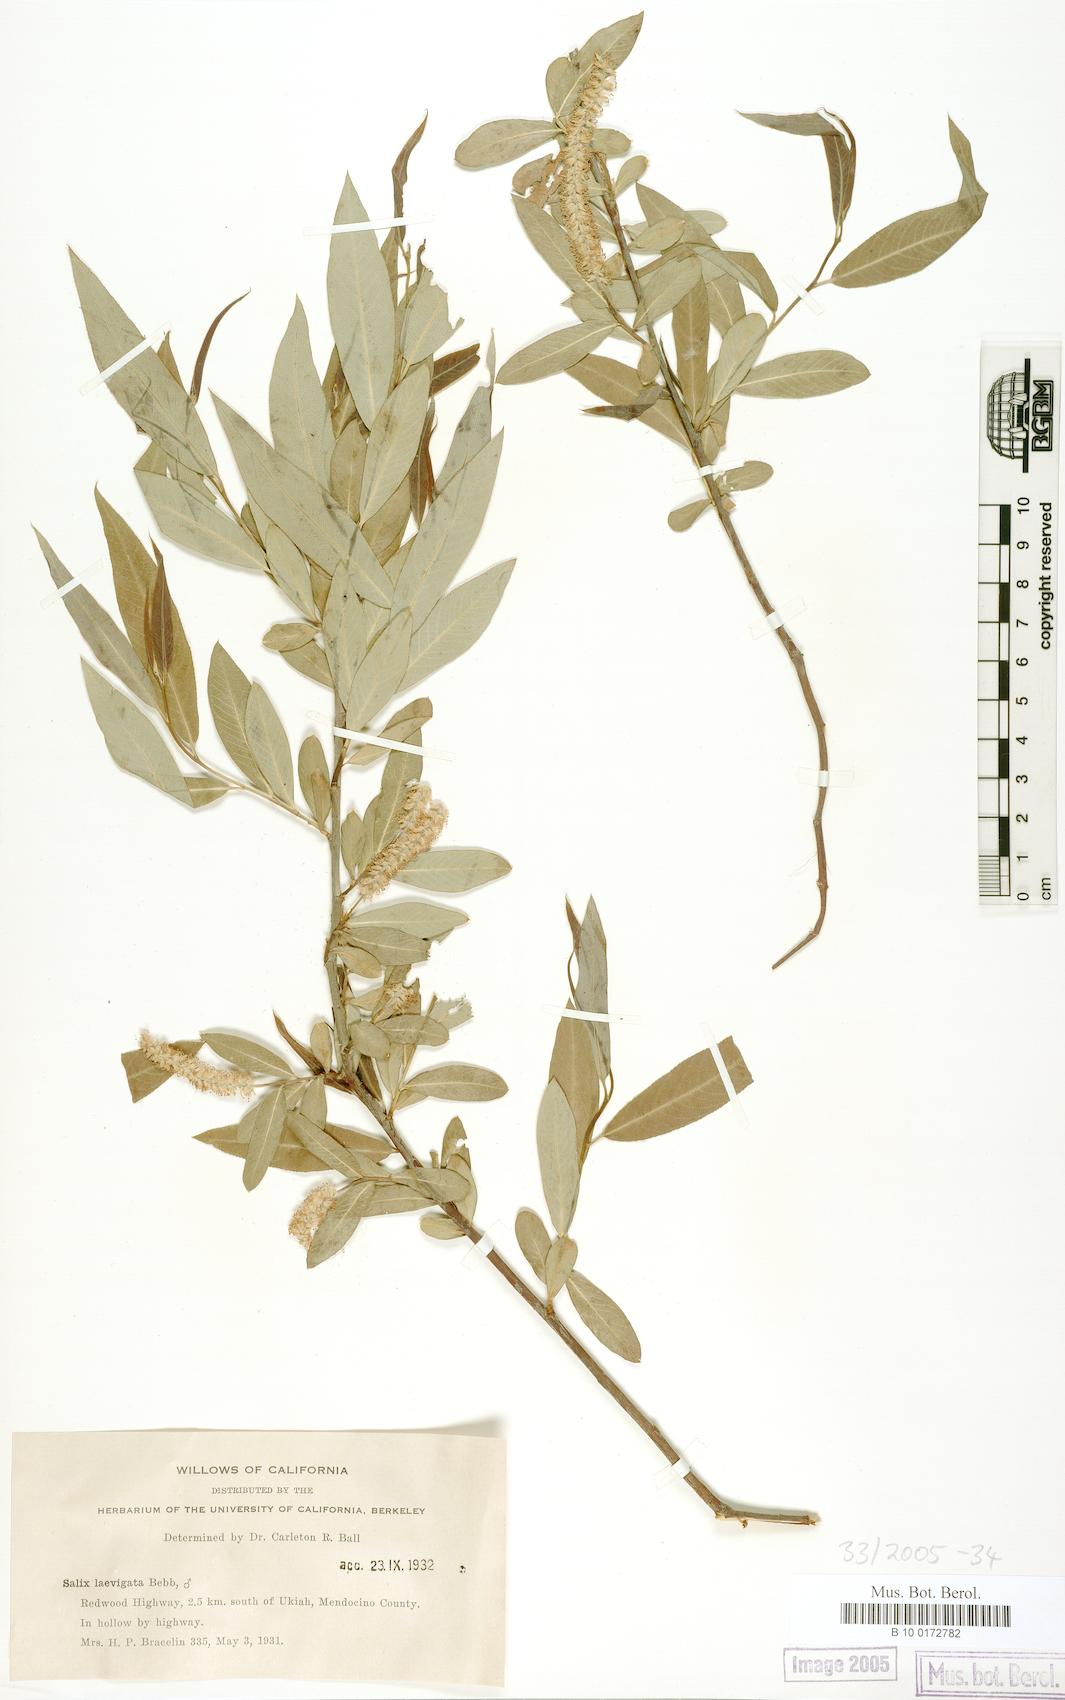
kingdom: Plantae
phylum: Tracheophyta
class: Magnoliopsida
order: Malpighiales
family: Salicaceae
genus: Salix
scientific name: Salix laevigata
